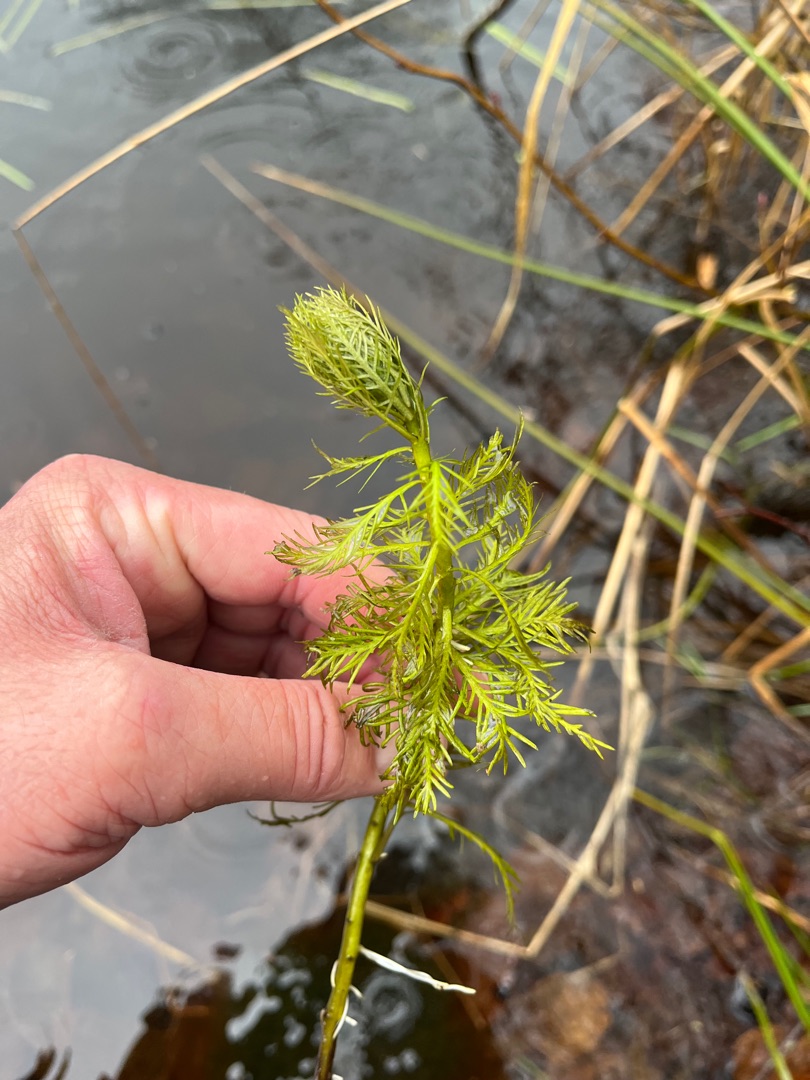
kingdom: Plantae
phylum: Tracheophyta
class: Magnoliopsida
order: Ericales
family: Primulaceae
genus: Hottonia
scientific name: Hottonia palustris
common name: Vandrøllike
